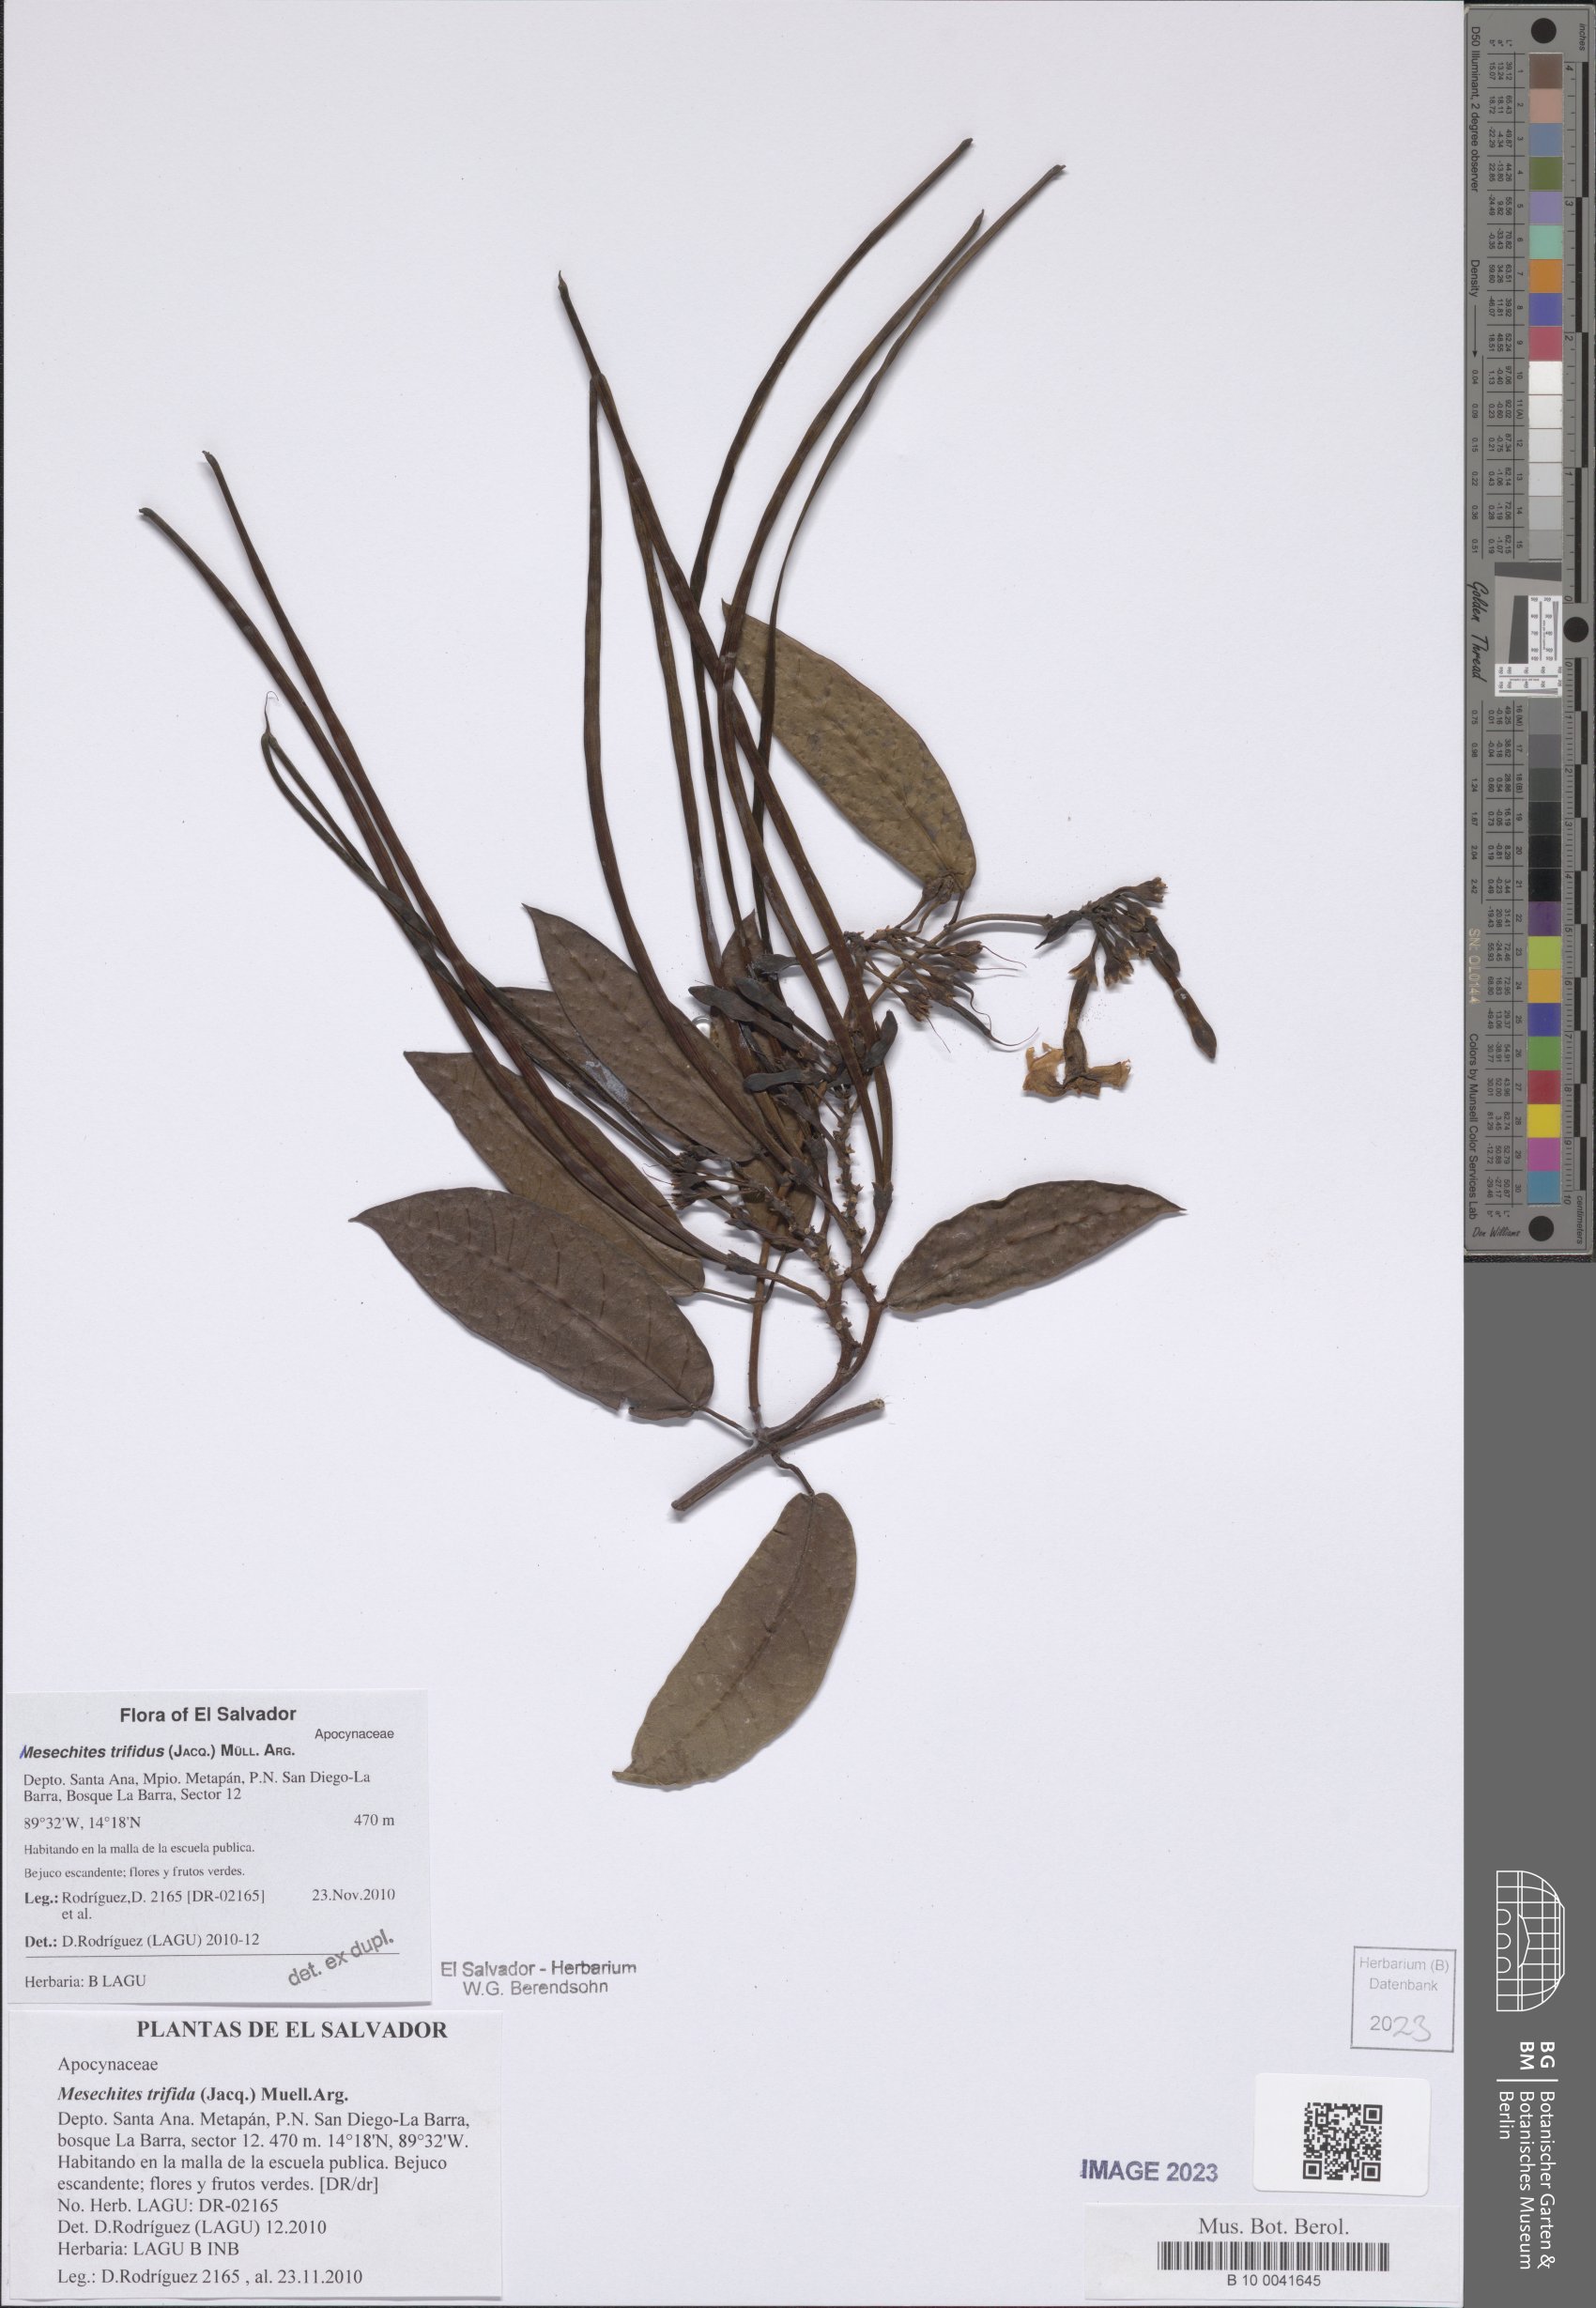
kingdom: Plantae
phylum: Tracheophyta
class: Magnoliopsida
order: Gentianales
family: Apocynaceae
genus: Mesechites
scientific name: Mesechites trifidus
